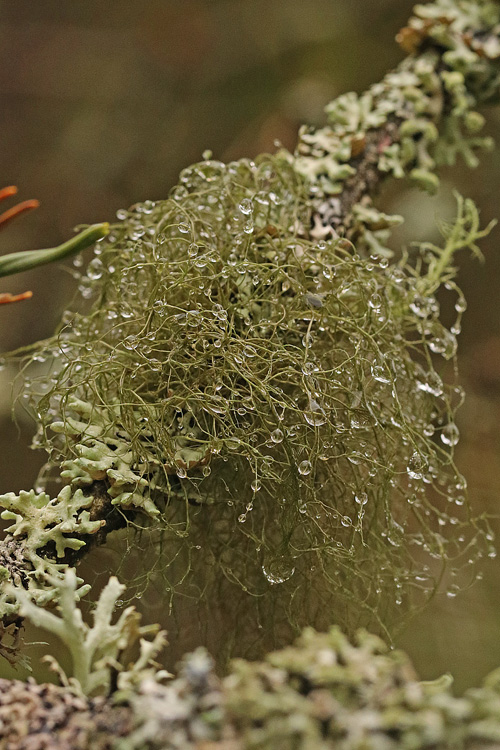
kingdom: Fungi
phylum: Ascomycota
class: Lecanoromycetes
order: Lecanorales
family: Parmeliaceae
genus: Bryoria
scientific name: Bryoria fuscescens
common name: almindelig mankelav
